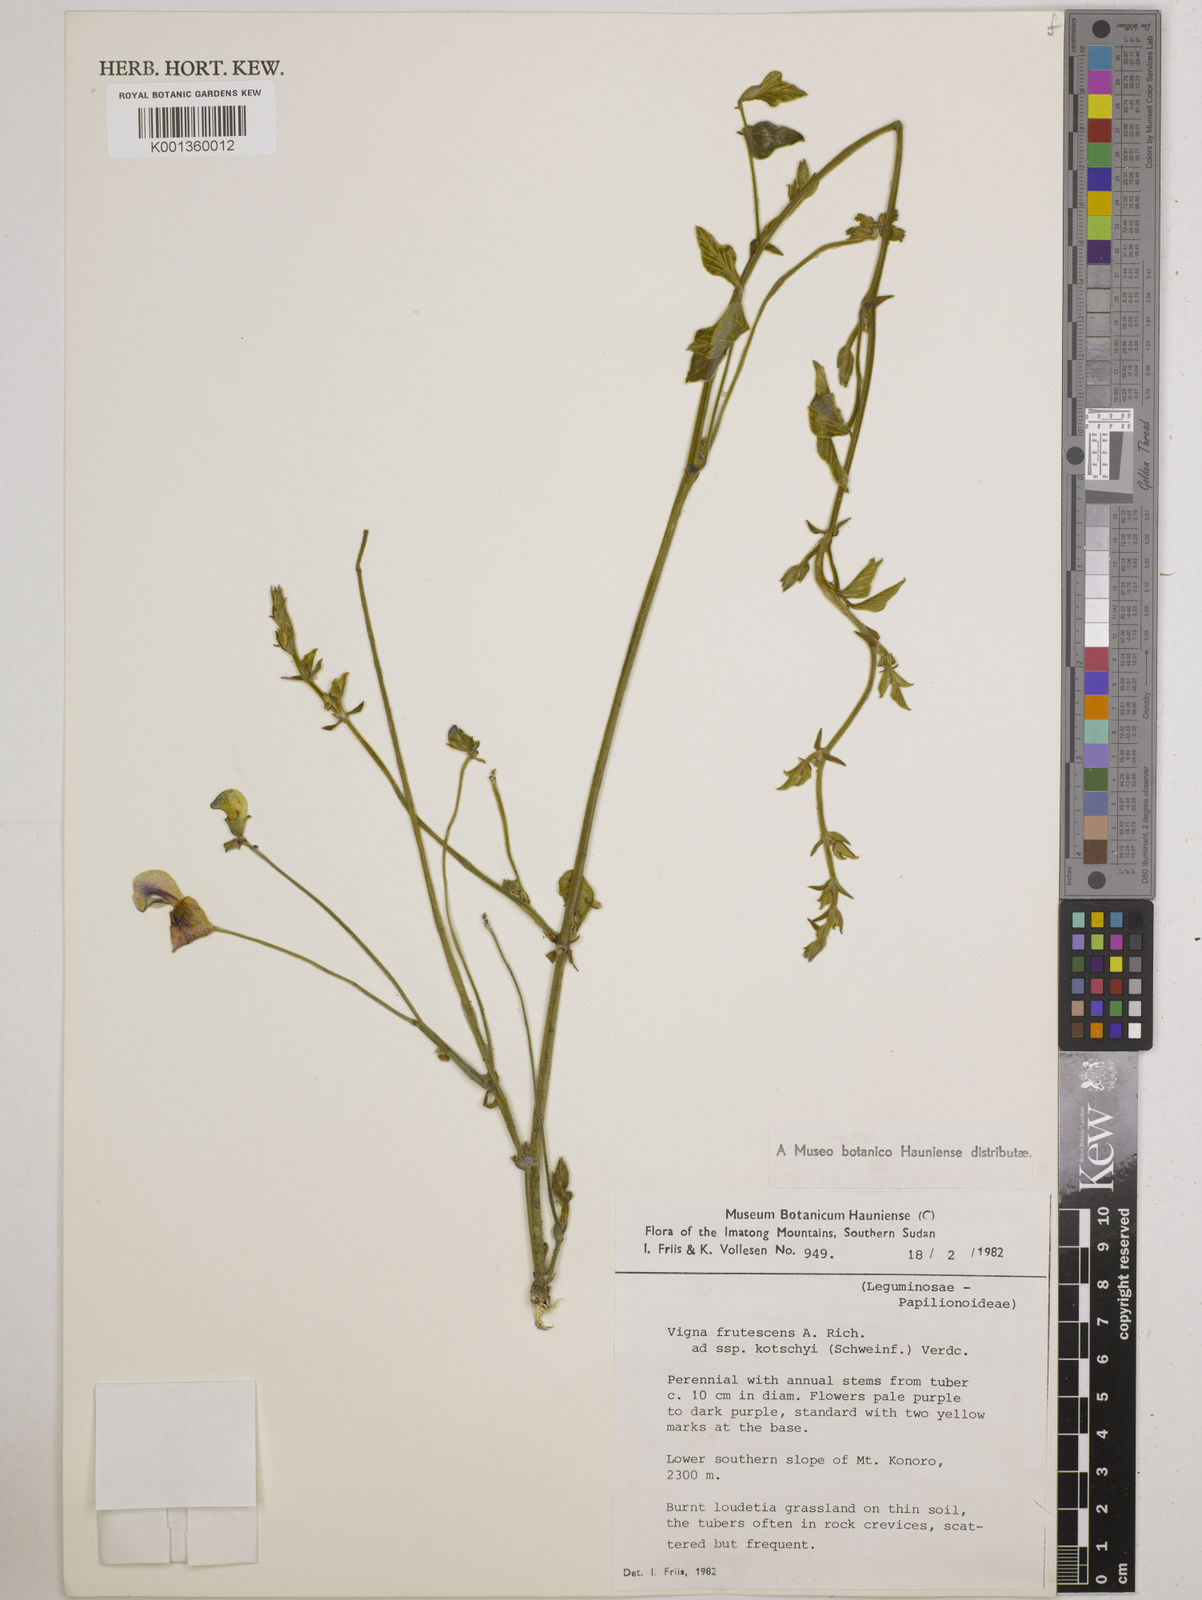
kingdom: Plantae
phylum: Tracheophyta
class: Magnoliopsida
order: Fabales
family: Fabaceae
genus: Vigna
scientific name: Vigna
